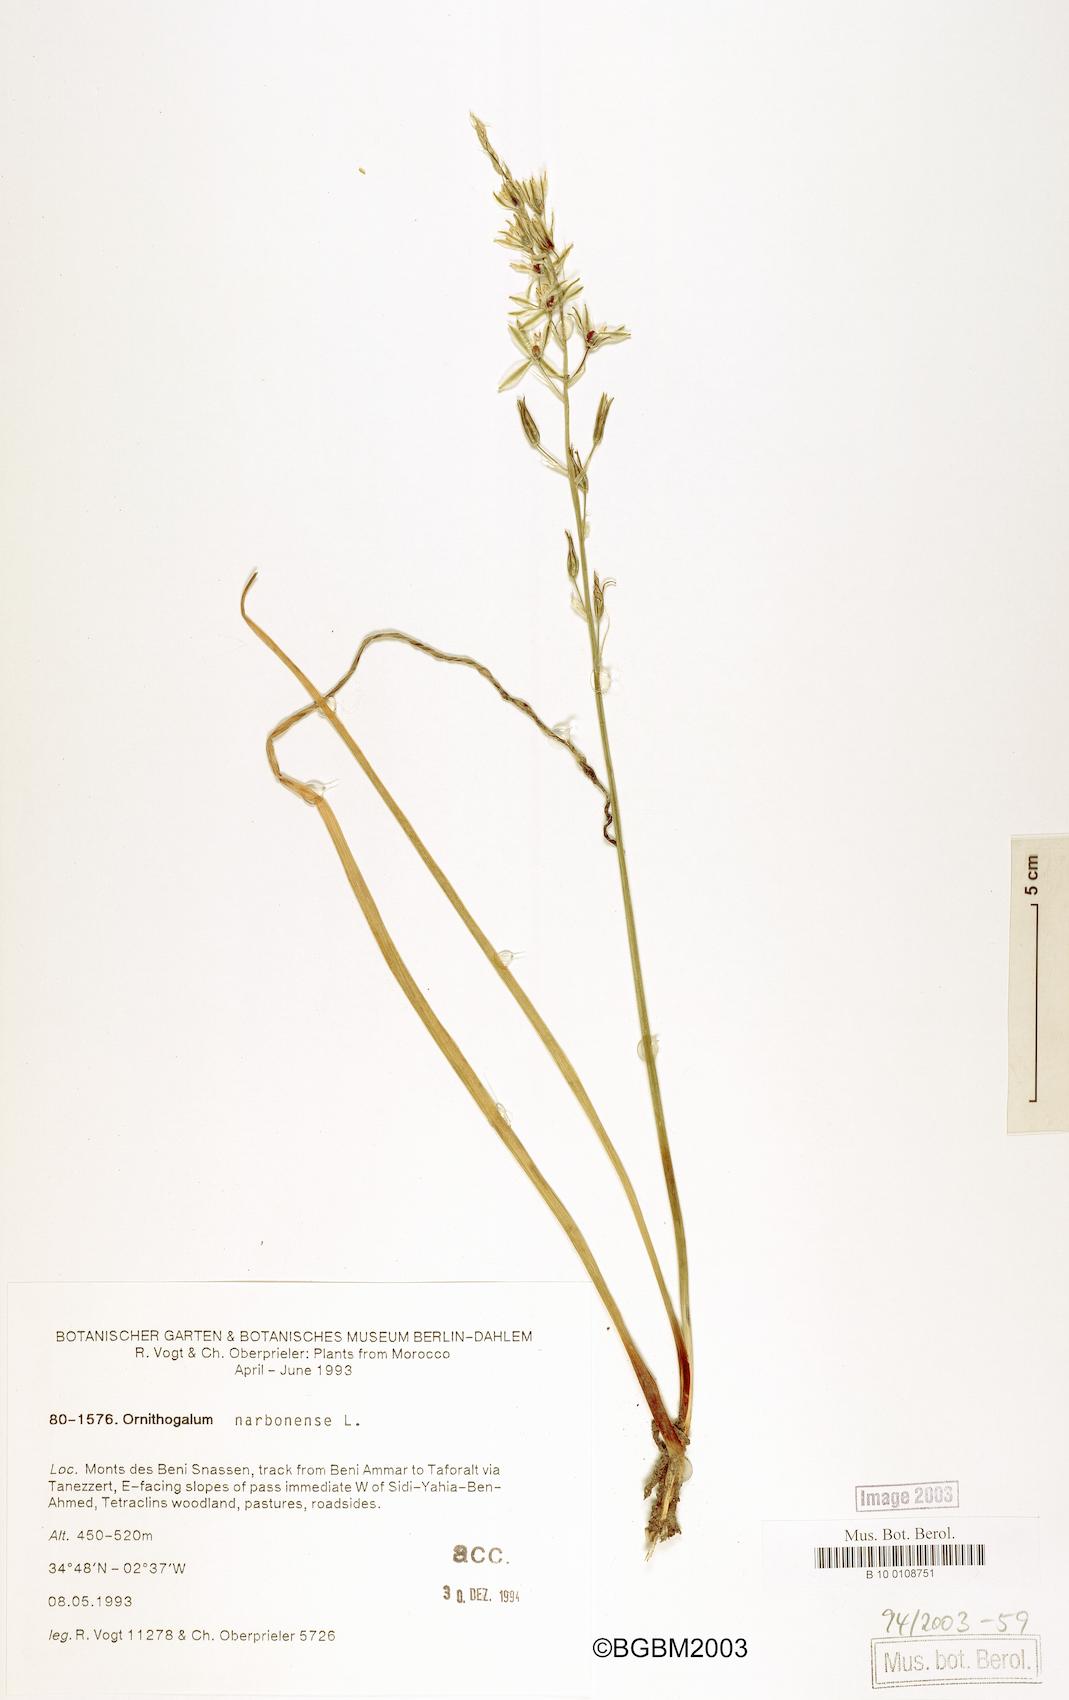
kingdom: Plantae
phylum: Tracheophyta
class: Liliopsida
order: Asparagales
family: Asparagaceae
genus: Ornithogalum
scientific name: Ornithogalum narbonense
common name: Bath-asparagus
